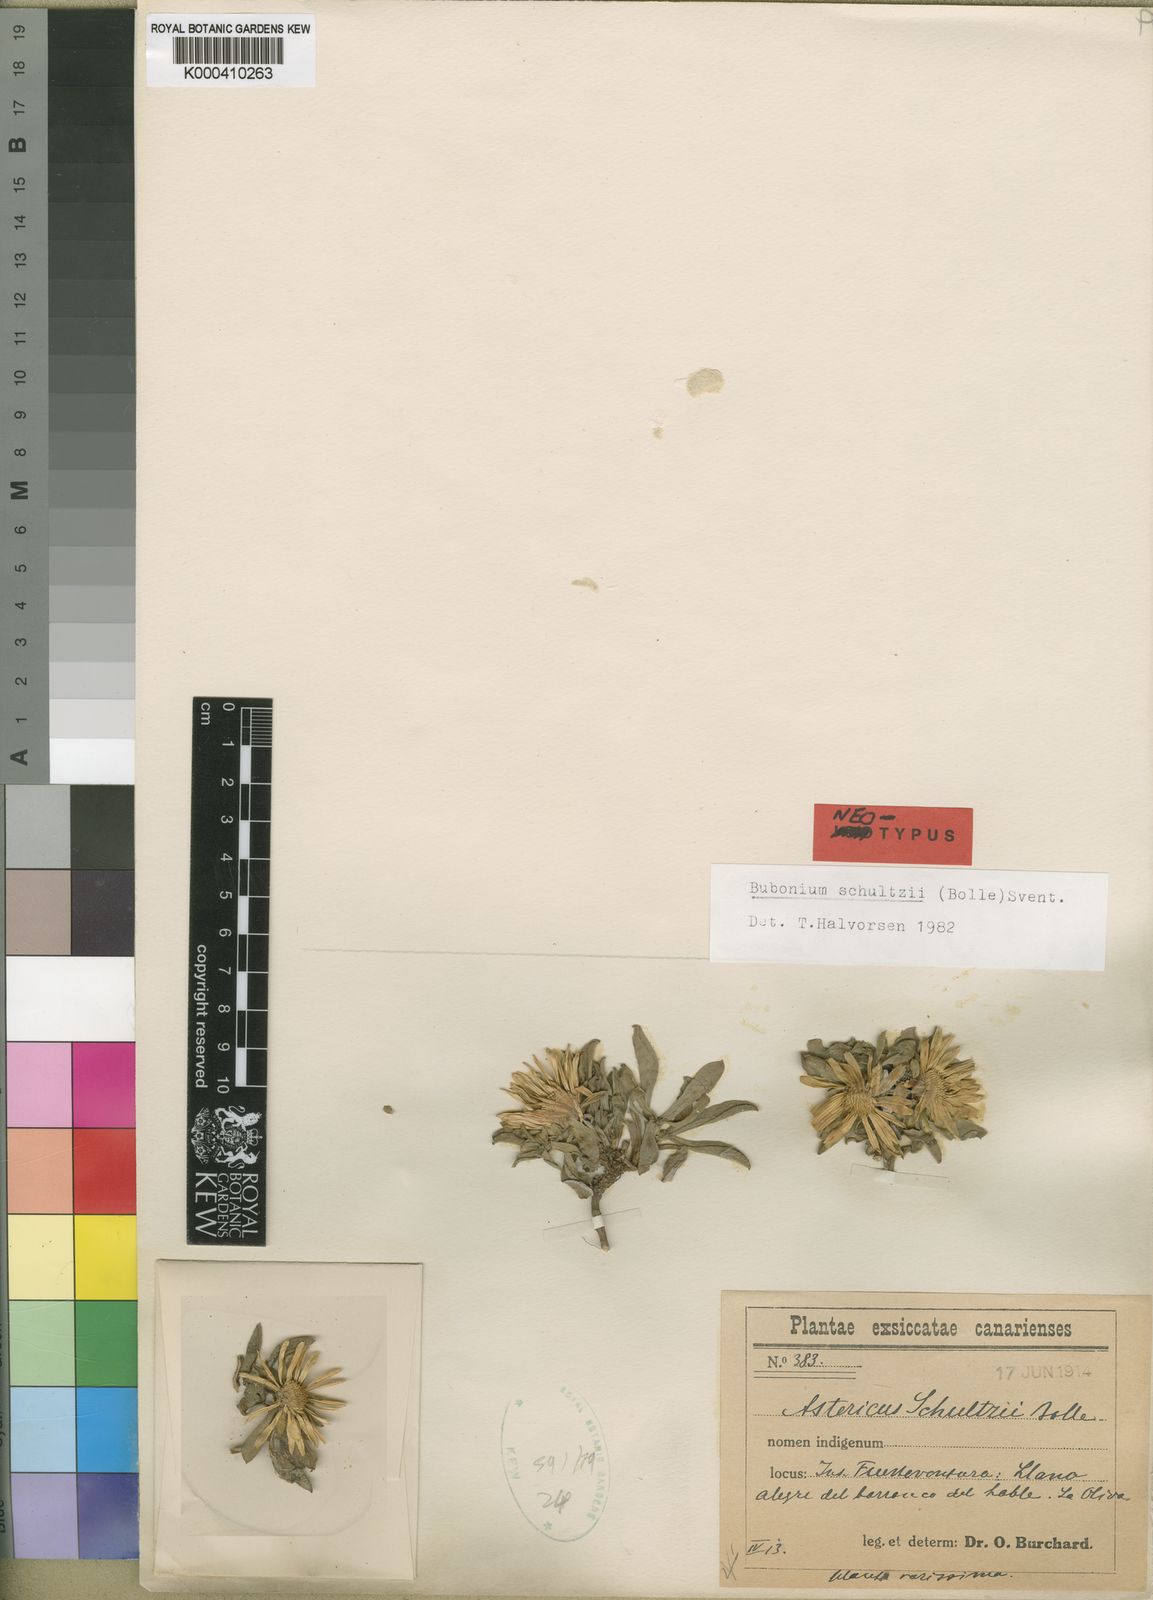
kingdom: Plantae
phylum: Tracheophyta
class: Magnoliopsida
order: Asterales
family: Asteraceae
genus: Asteriscus
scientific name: Asteriscus schultzii
